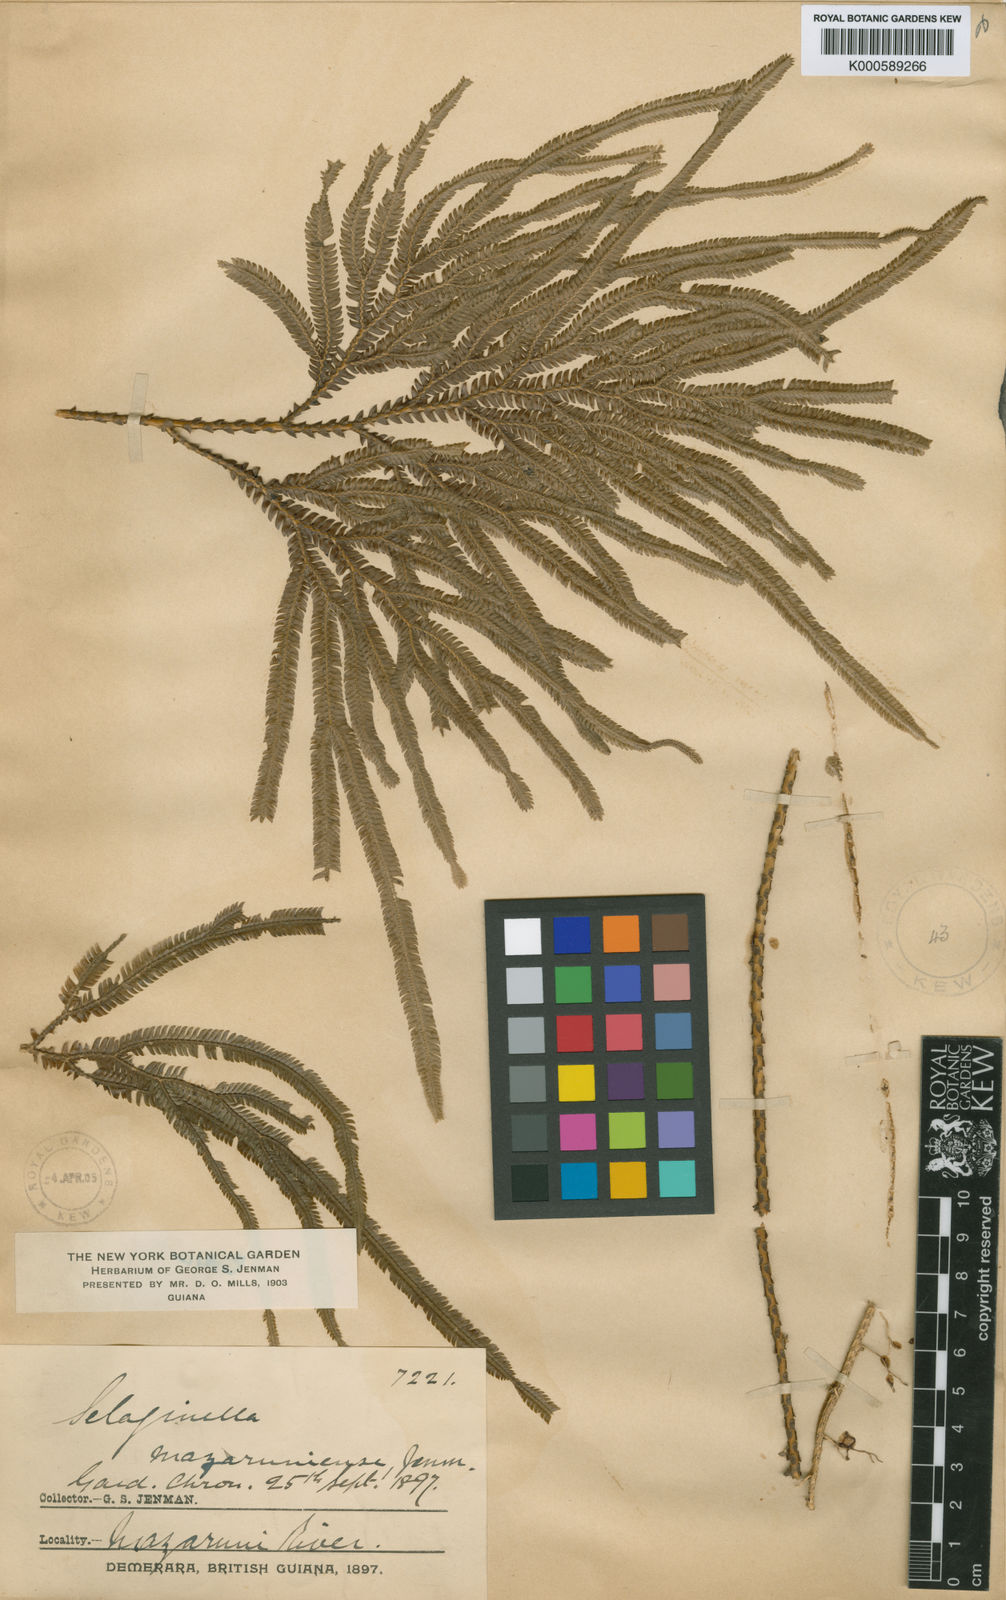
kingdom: Plantae
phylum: Tracheophyta
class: Lycopodiopsida
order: Selaginellales
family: Selaginellaceae
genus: Selaginella
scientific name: Selaginella
